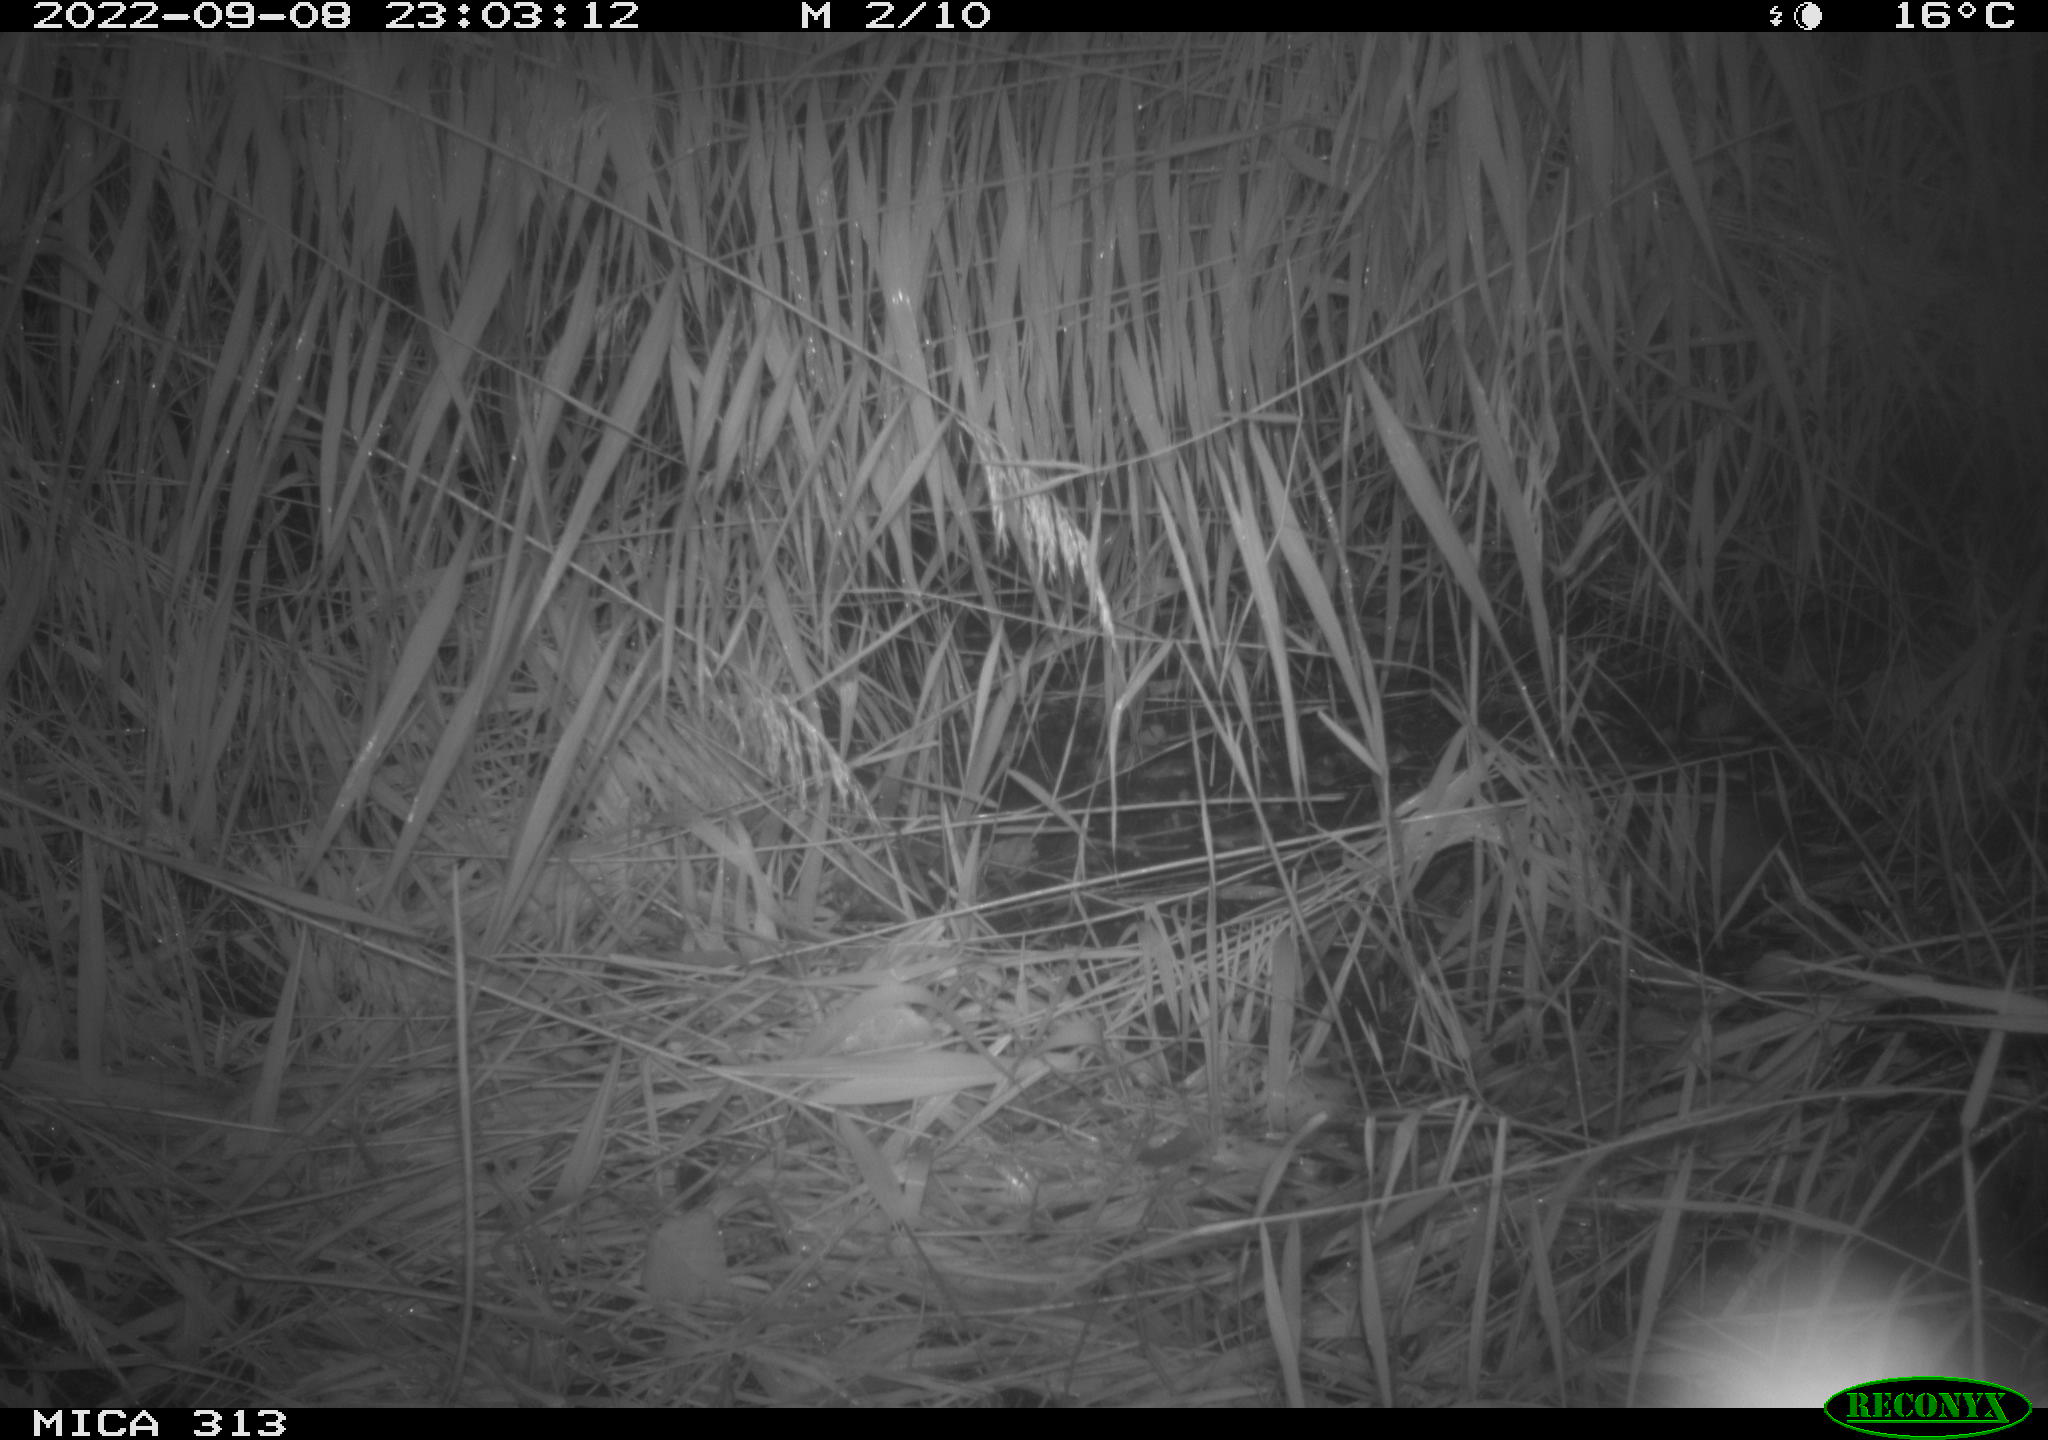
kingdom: Animalia
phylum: Chordata
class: Mammalia
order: Rodentia
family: Muridae
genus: Rattus
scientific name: Rattus norvegicus
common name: Brown rat
